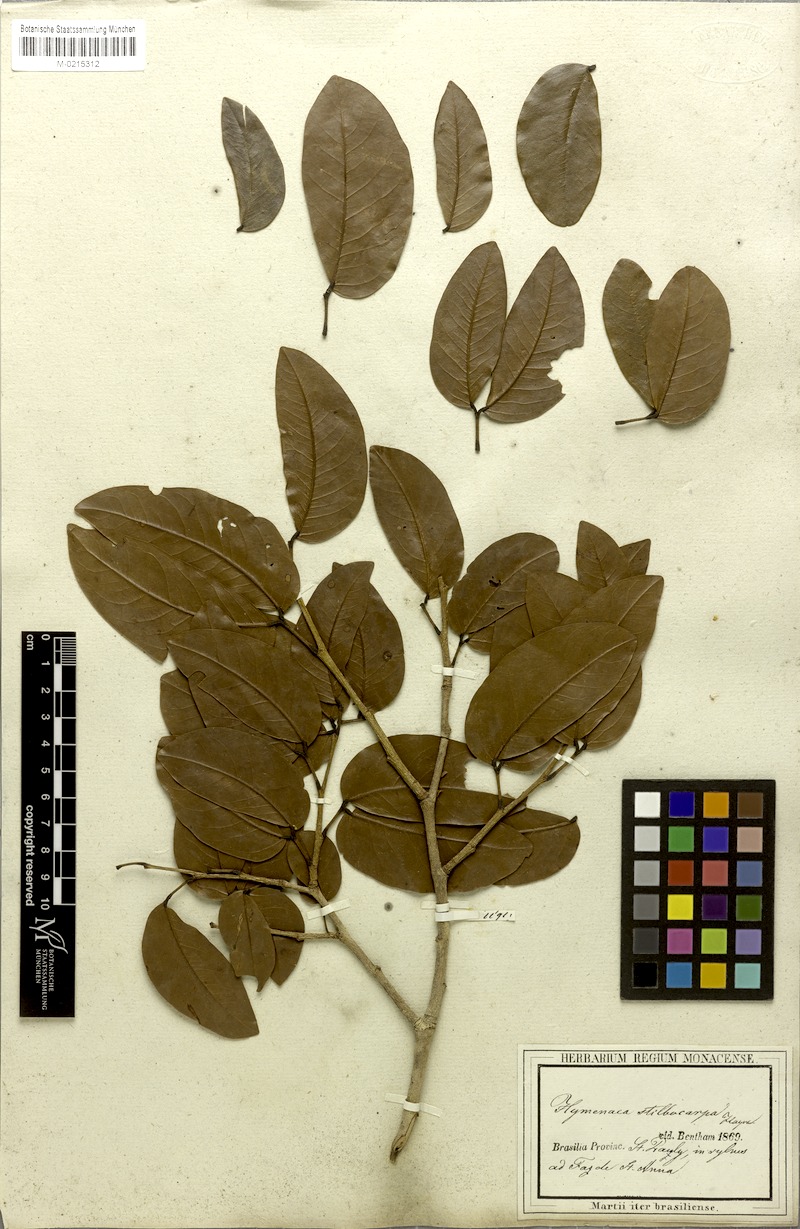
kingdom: Plantae
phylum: Tracheophyta
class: Magnoliopsida
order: Fabales
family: Fabaceae
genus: Hymenaea
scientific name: Hymenaea courbaril
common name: Brazilian copal
